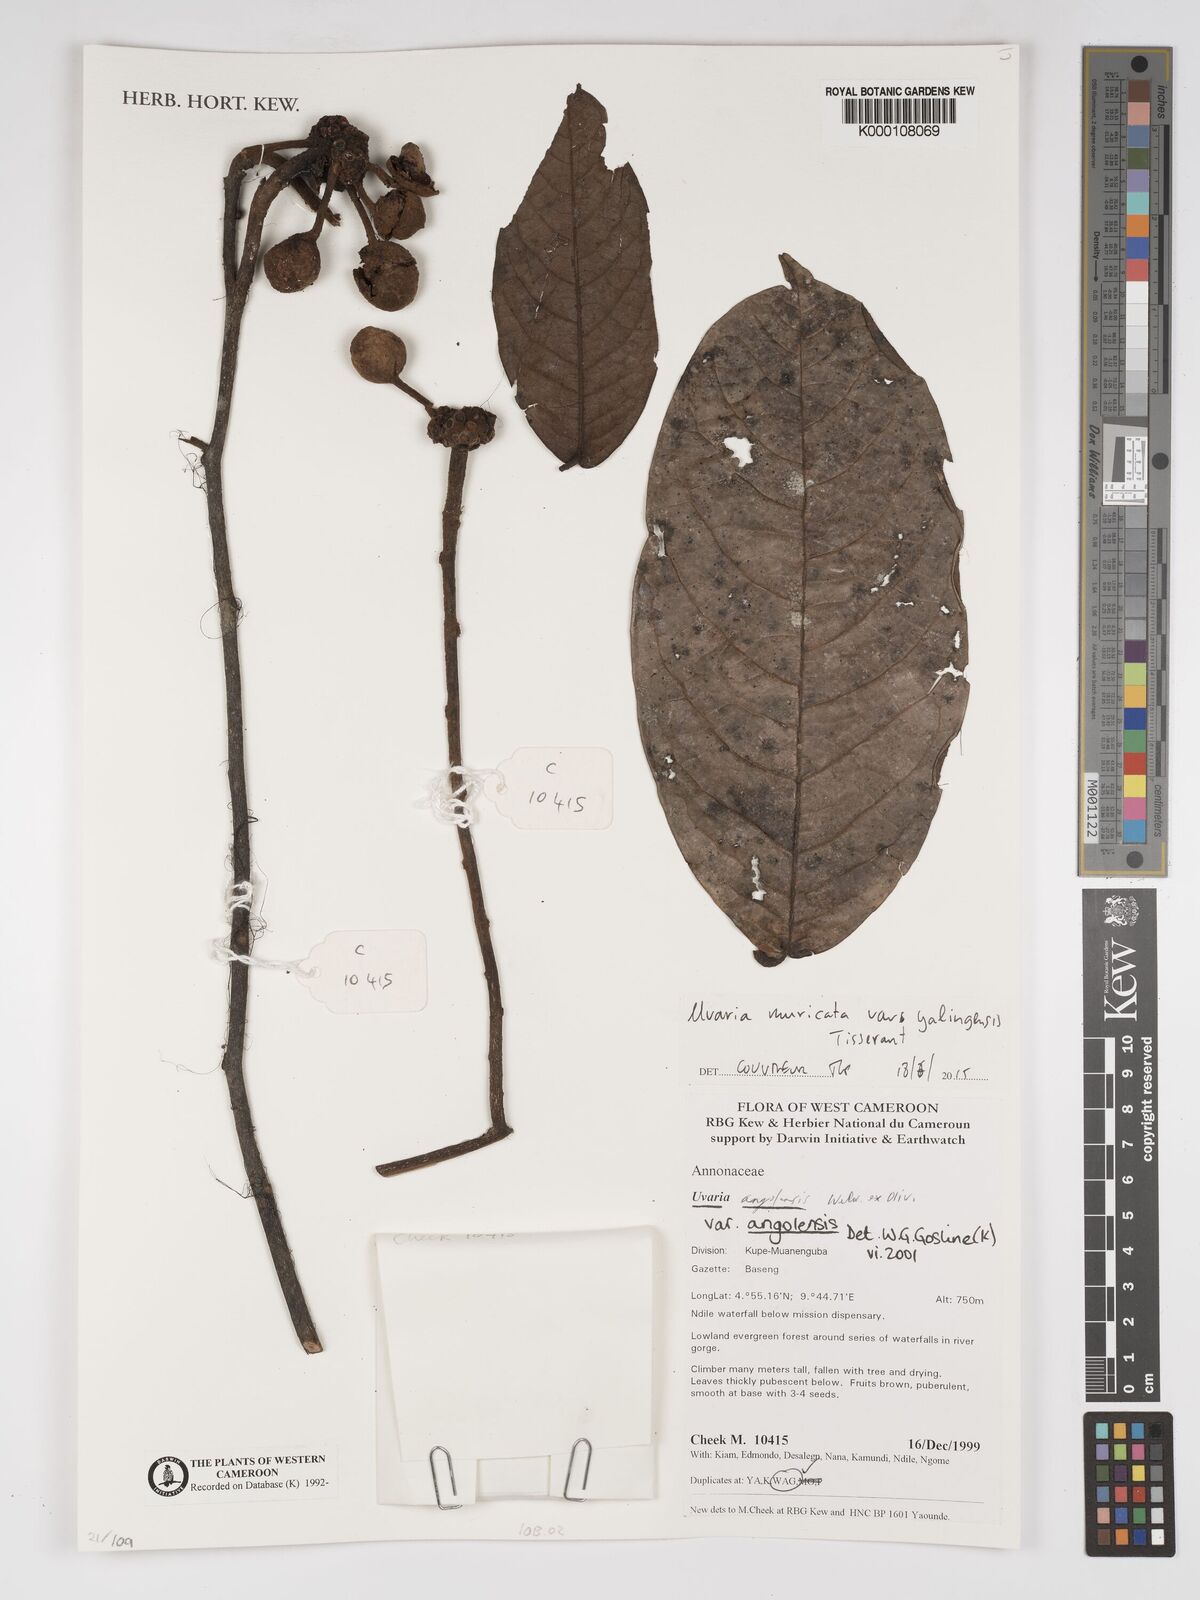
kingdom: Plantae
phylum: Tracheophyta
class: Magnoliopsida
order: Magnoliales
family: Annonaceae
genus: Uvaria
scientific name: Uvaria angolensis
